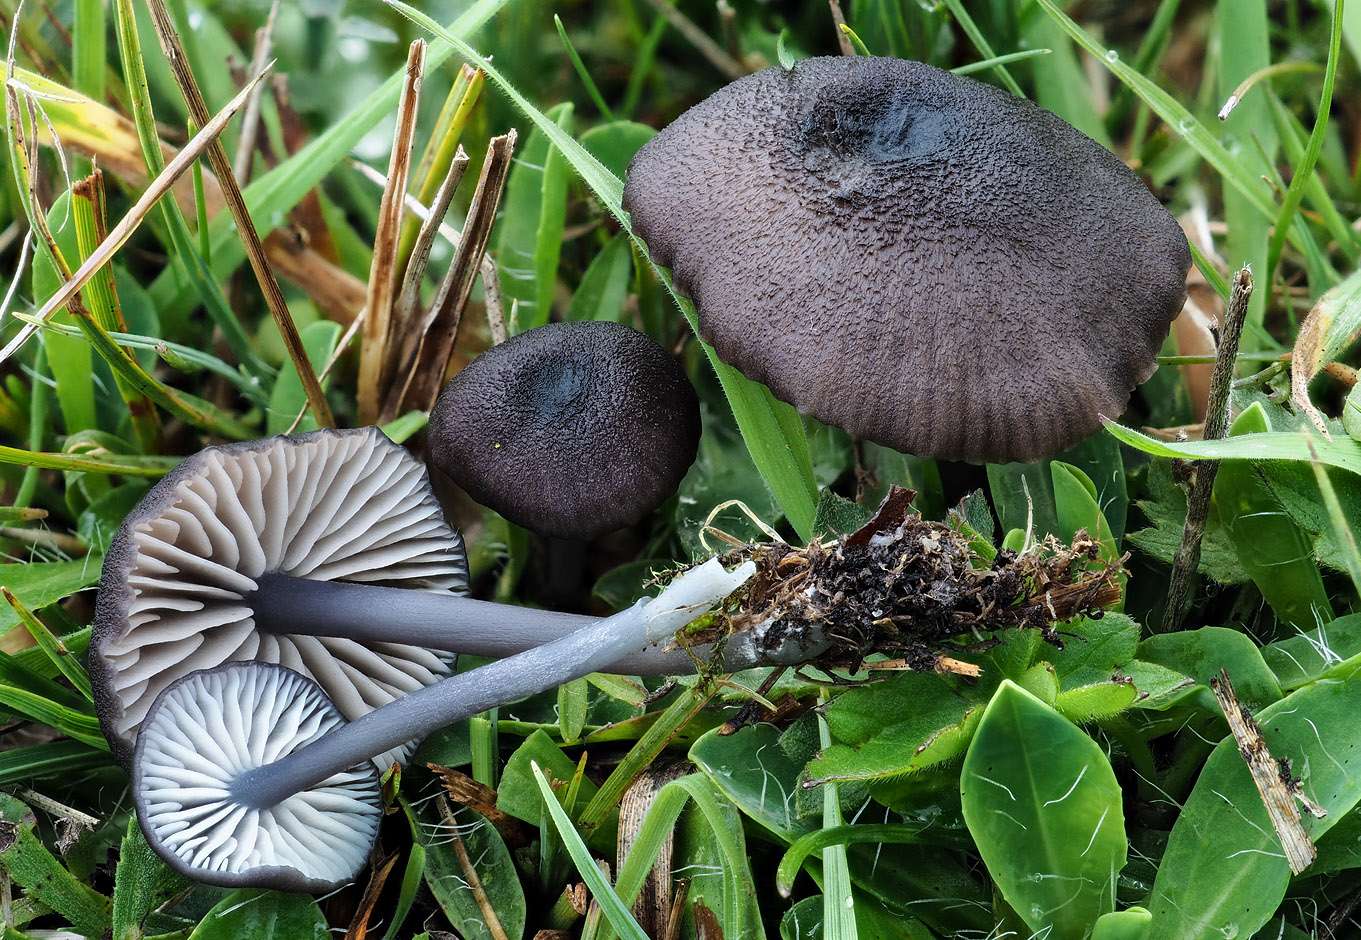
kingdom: Fungi
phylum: Basidiomycota
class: Agaricomycetes
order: Agaricales
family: Entolomataceae
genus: Entoloma
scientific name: Entoloma chalybeum
